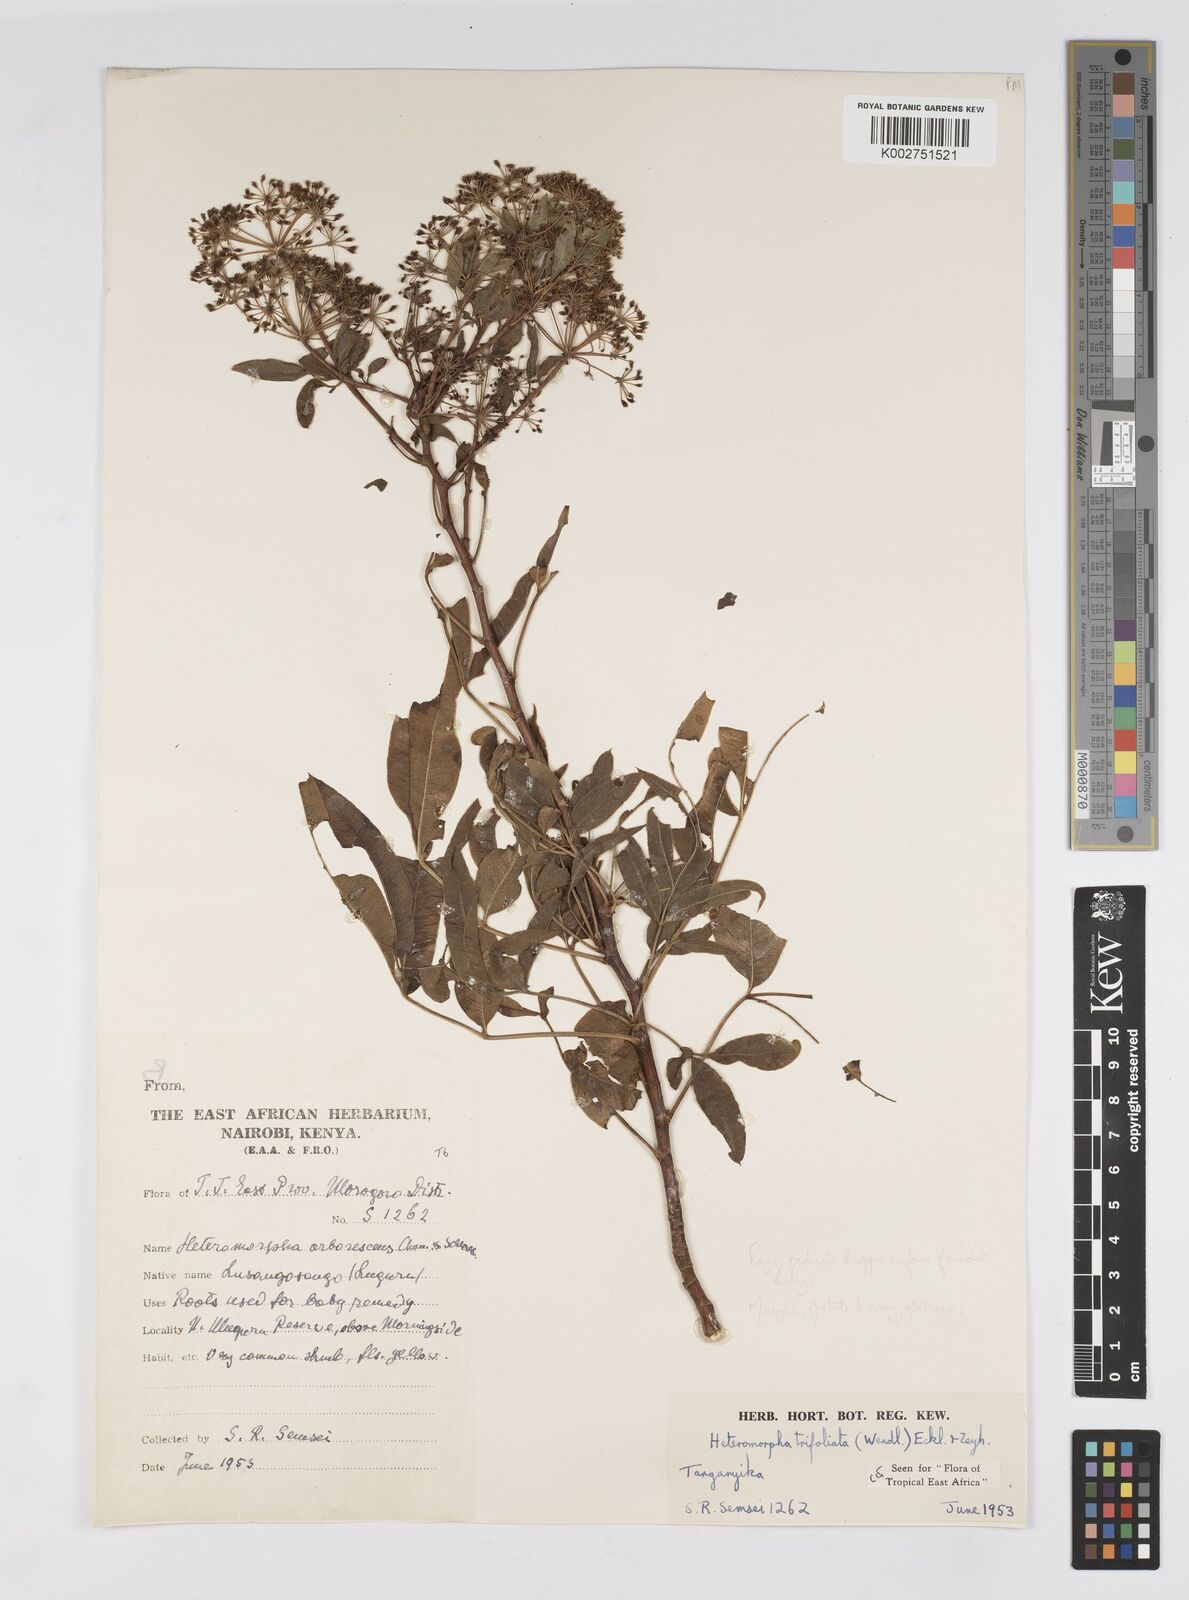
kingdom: Plantae
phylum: Tracheophyta
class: Magnoliopsida
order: Apiales
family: Apiaceae
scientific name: Apiaceae
